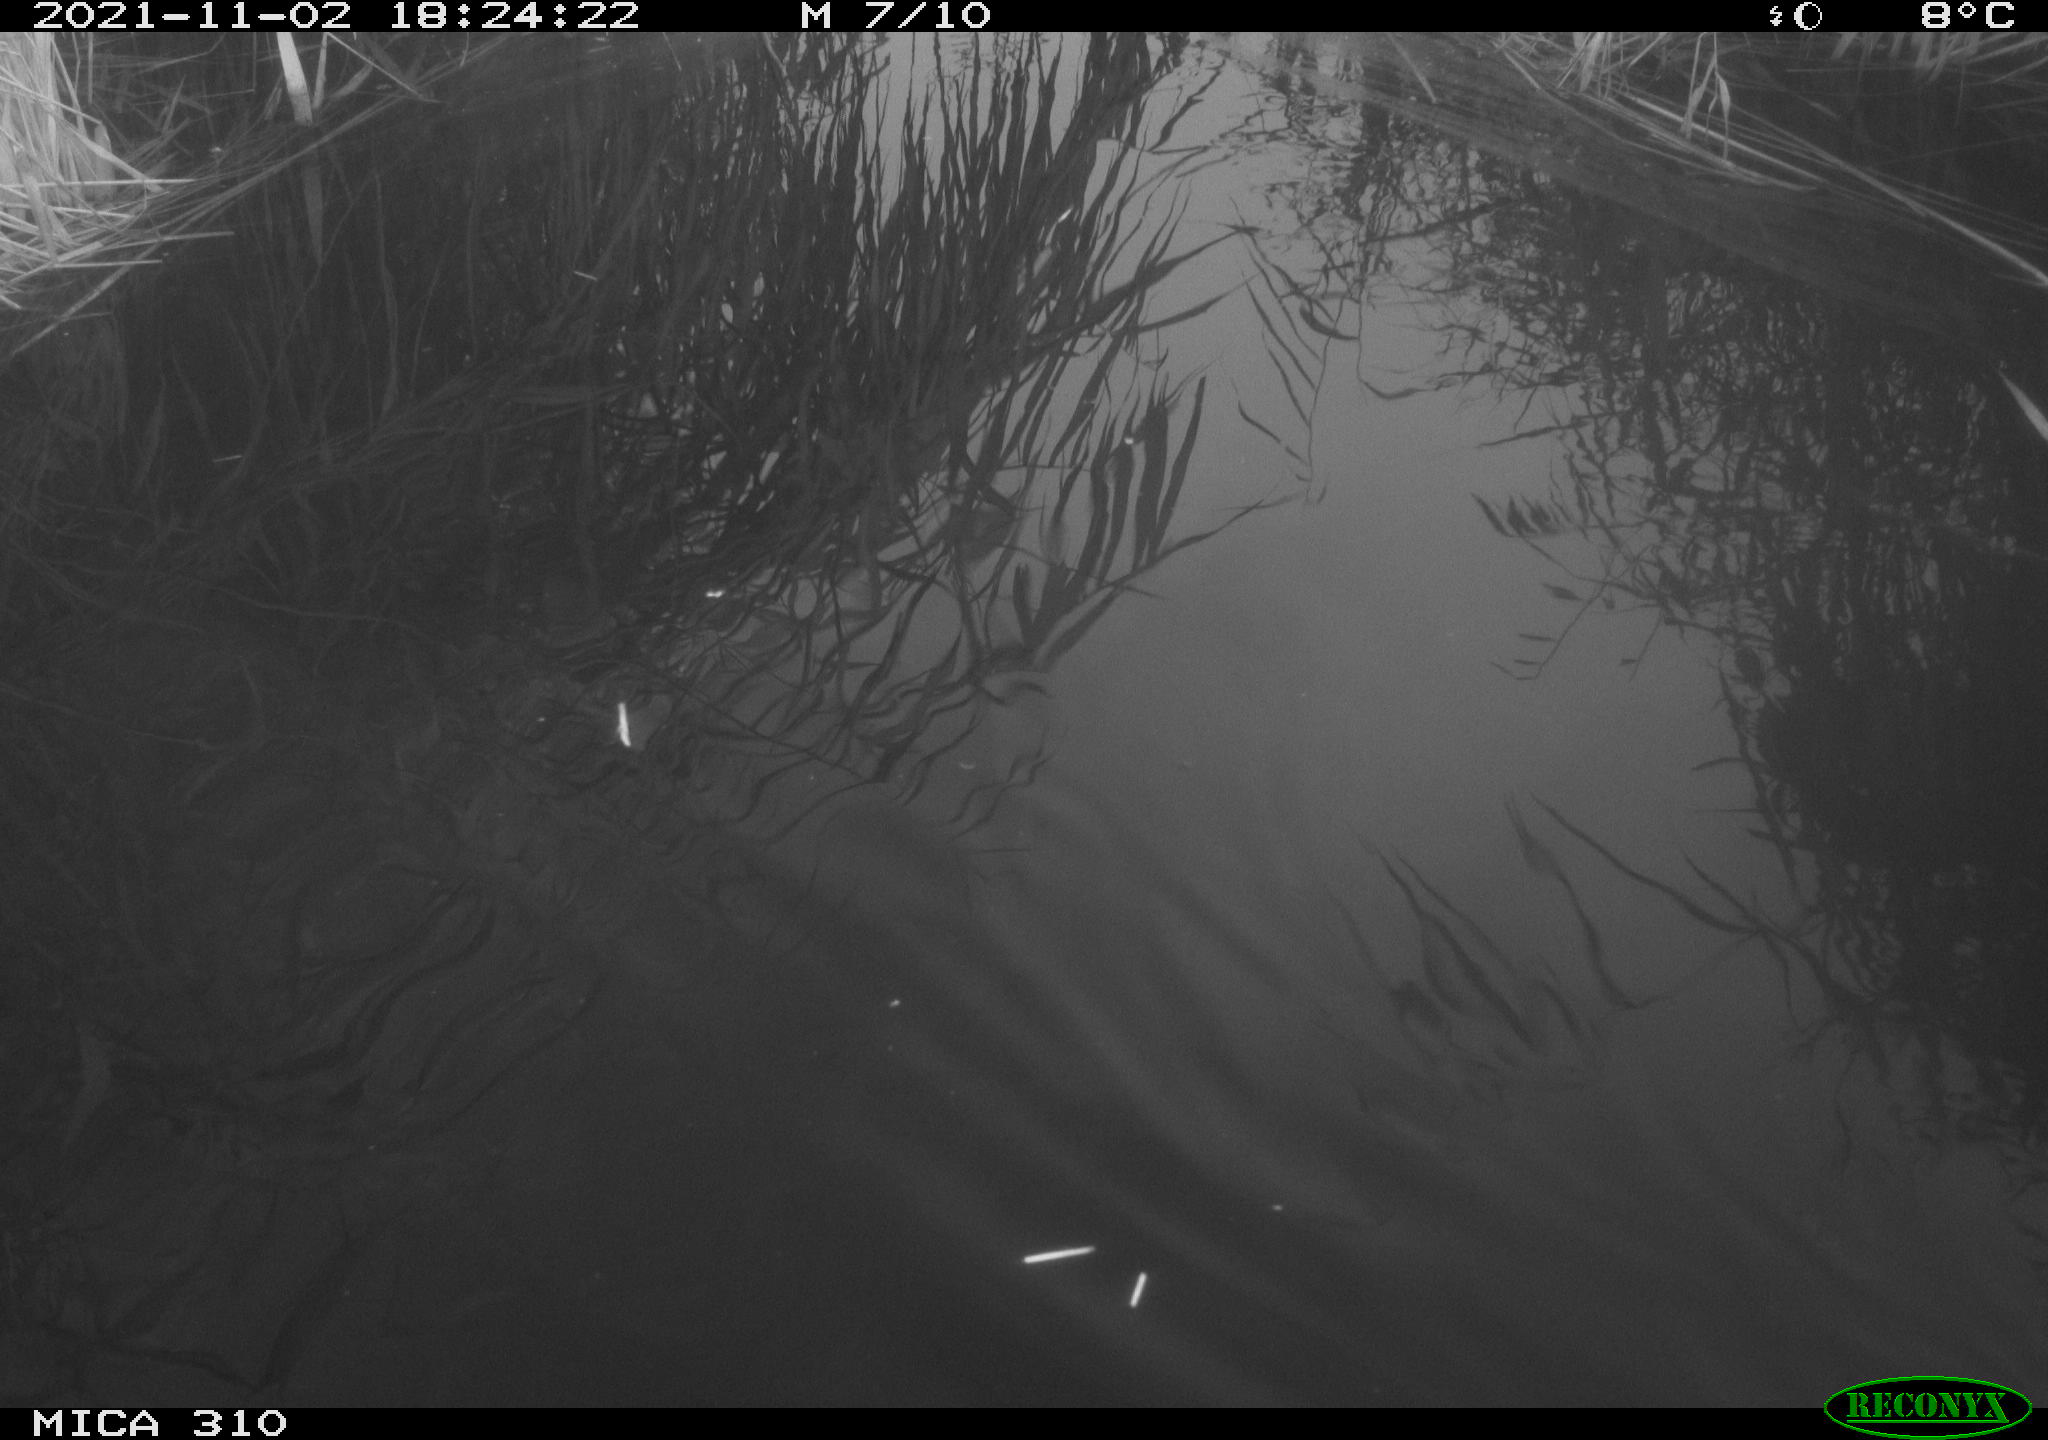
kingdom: Animalia
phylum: Chordata
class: Aves
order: Gruiformes
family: Rallidae
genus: Fulica
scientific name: Fulica atra
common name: Eurasian coot
